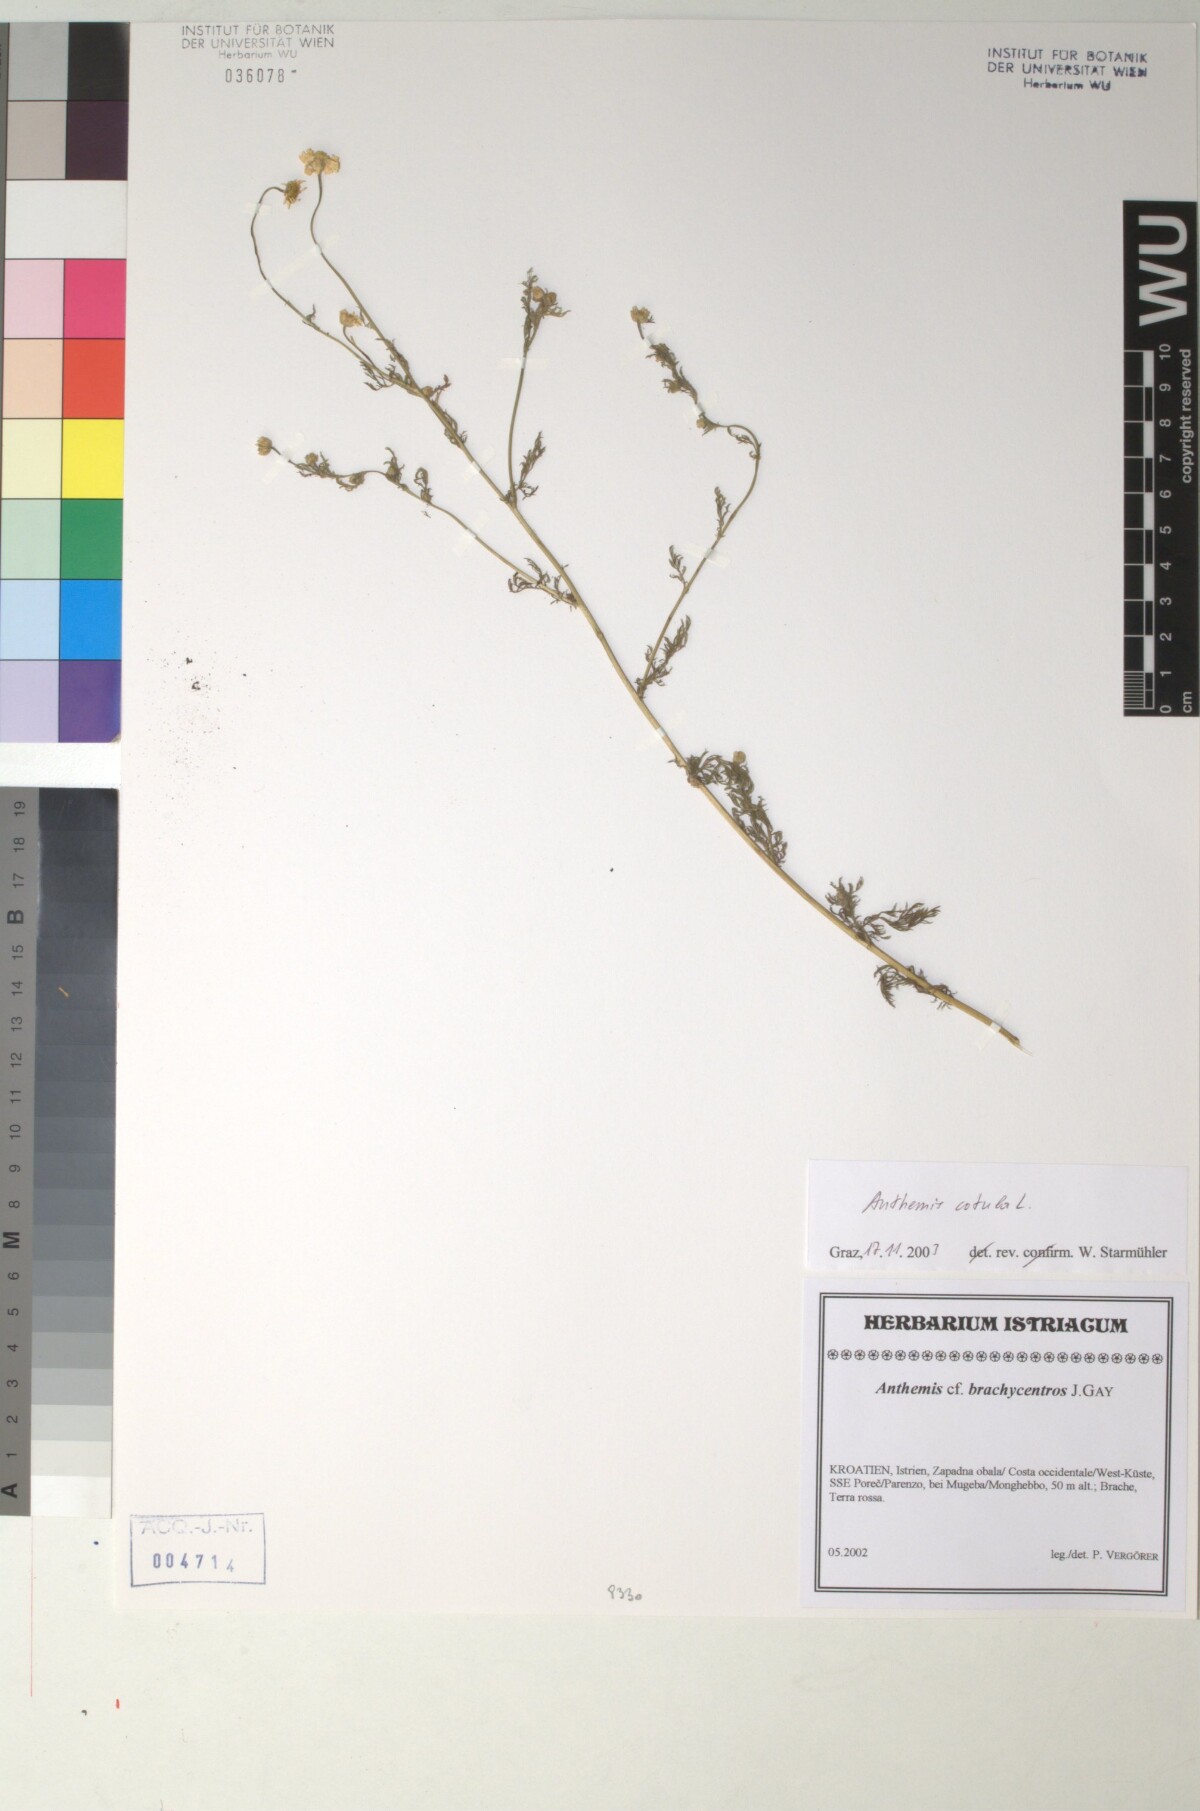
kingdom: Plantae
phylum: Tracheophyta
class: Magnoliopsida
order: Asterales
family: Asteraceae
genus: Anthemis
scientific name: Anthemis cotula
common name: Stinking chamomile
